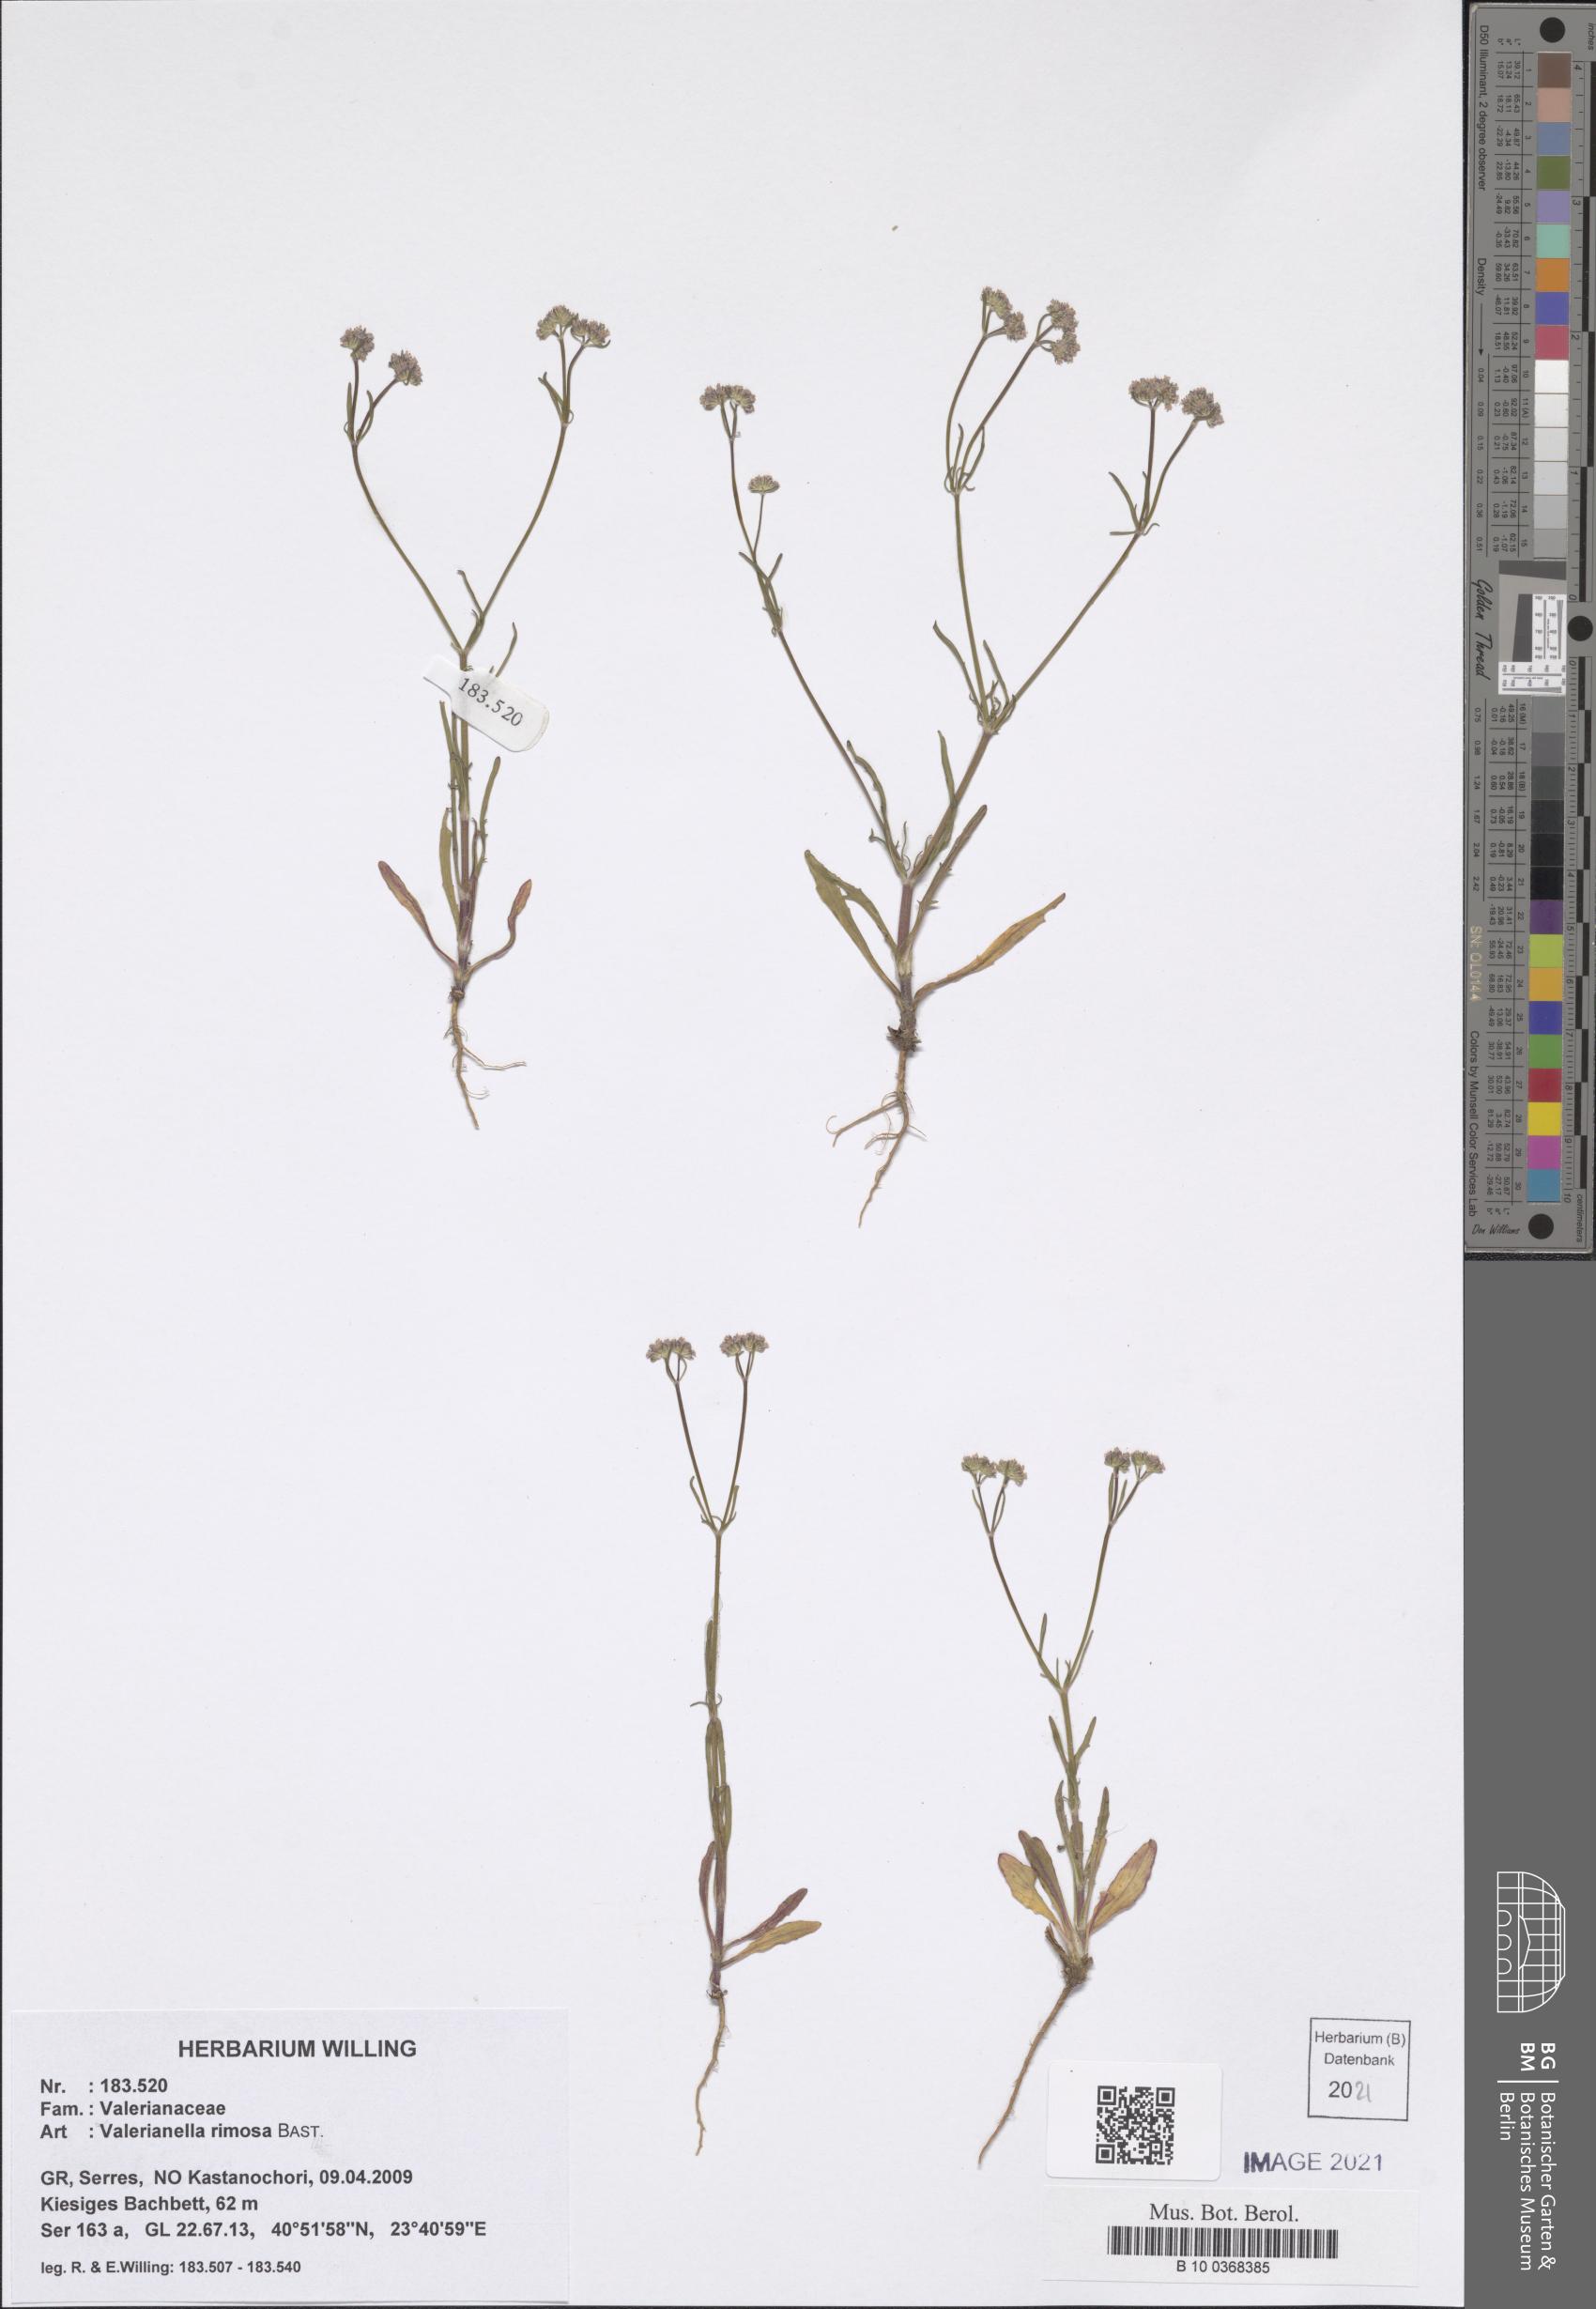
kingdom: Plantae
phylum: Tracheophyta
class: Magnoliopsida
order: Dipsacales
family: Caprifoliaceae
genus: Valerianella
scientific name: Valerianella rimosa
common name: Broad-fruited cornsalad
